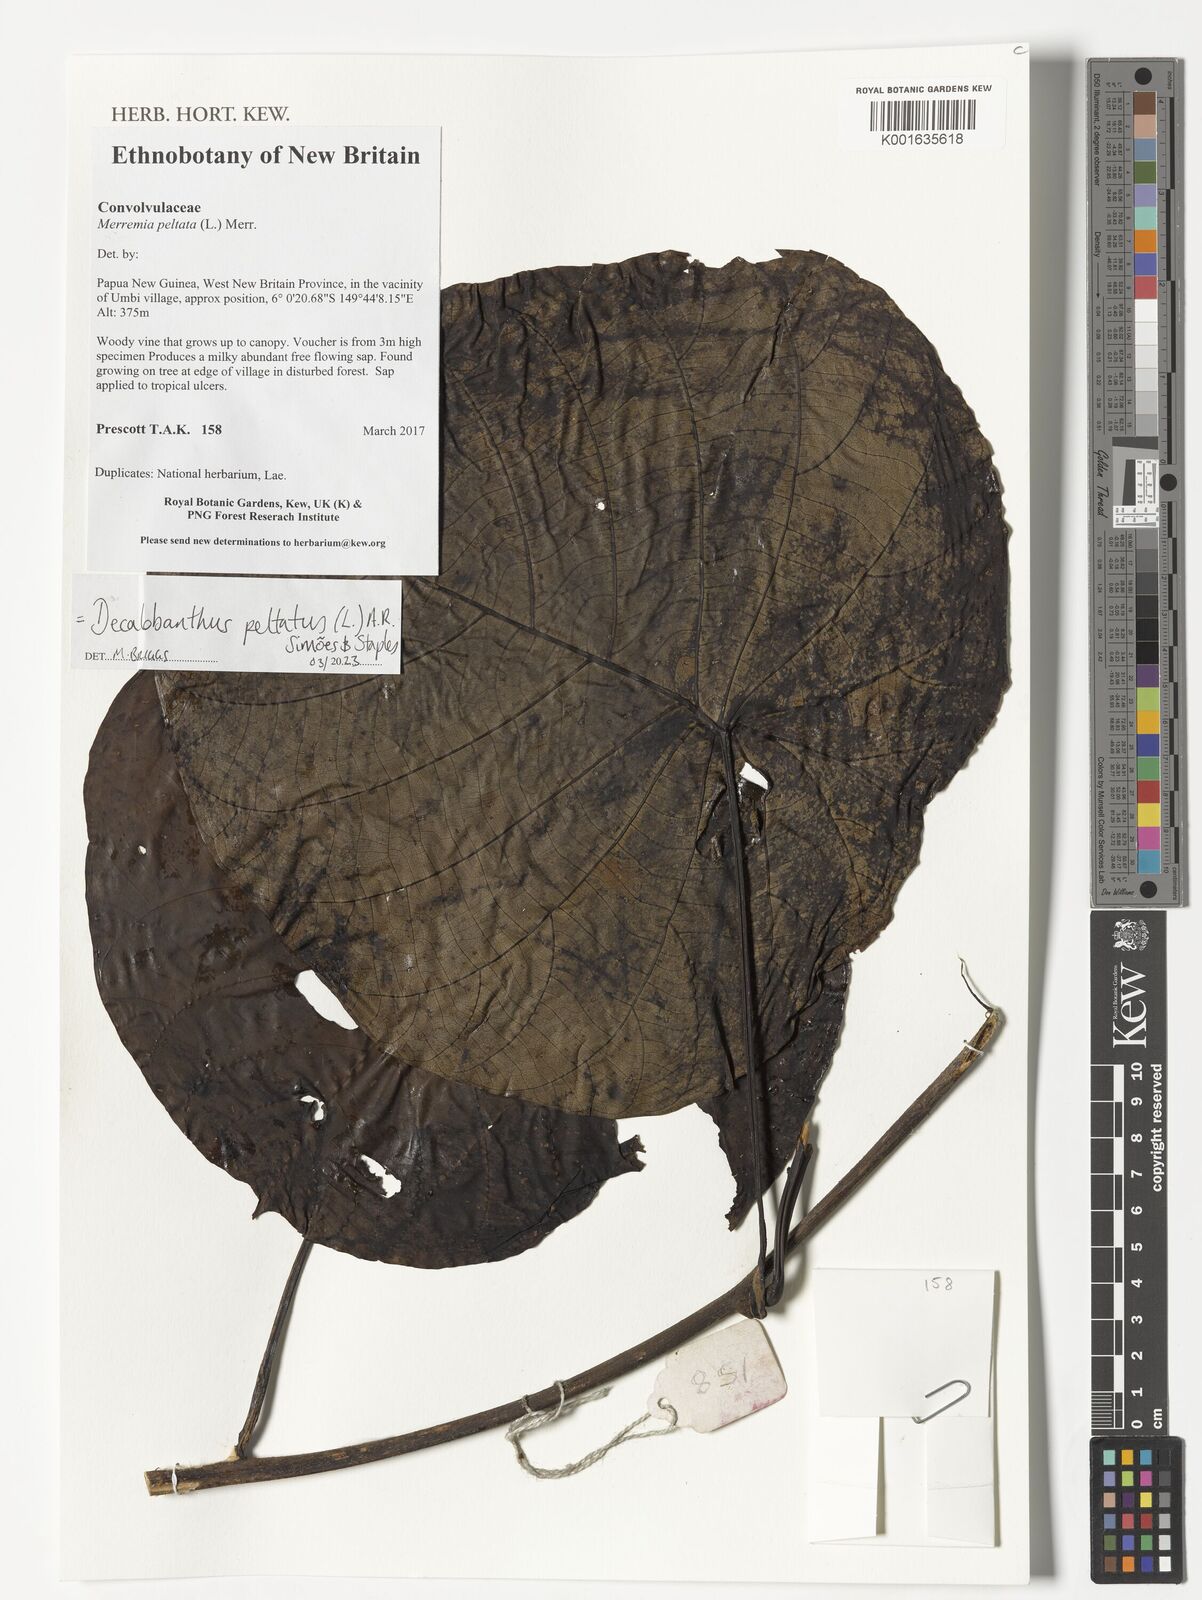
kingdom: Plantae
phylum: Tracheophyta
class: Magnoliopsida
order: Solanales
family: Convolvulaceae
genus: Decalobanthus
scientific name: Decalobanthus peltatus
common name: Merremia
